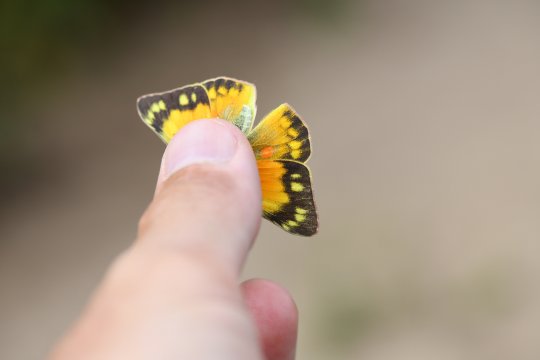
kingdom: Animalia
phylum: Arthropoda
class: Insecta
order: Lepidoptera
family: Pieridae
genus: Colias
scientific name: Colias eurytheme
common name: Orange Sulphur
